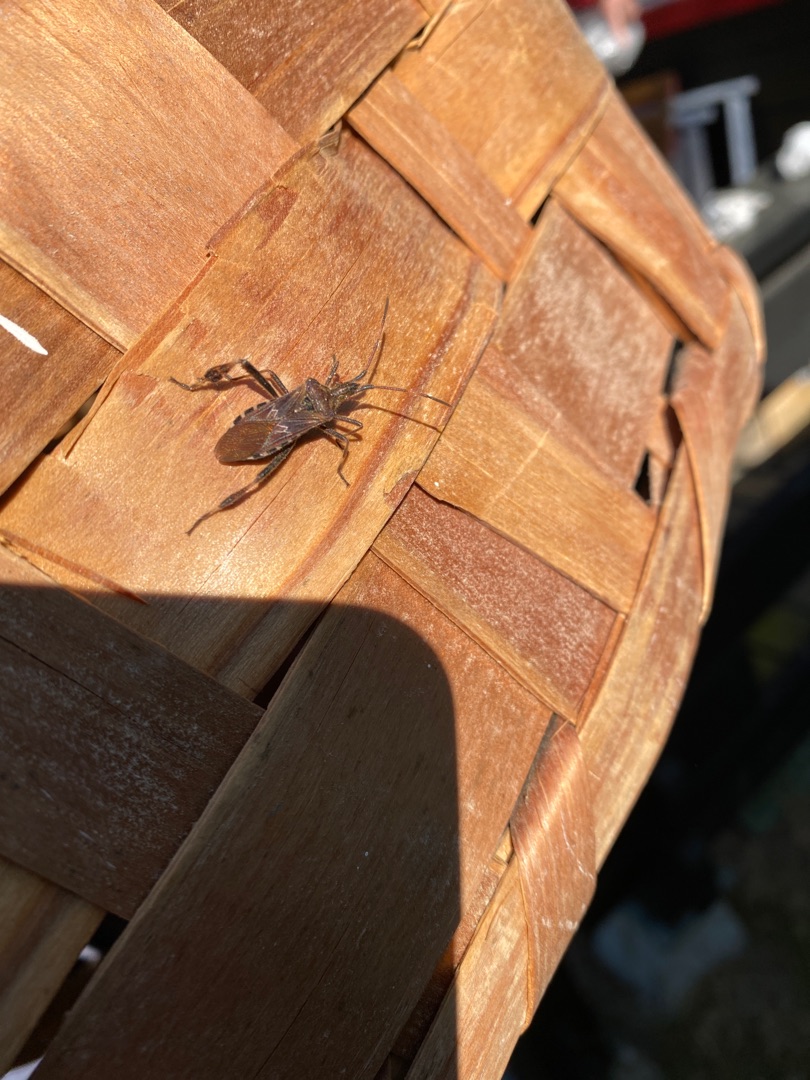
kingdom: Animalia
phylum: Arthropoda
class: Insecta
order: Hemiptera
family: Coreidae
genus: Leptoglossus
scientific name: Leptoglossus occidentalis
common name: Amerikansk fyrretæge
